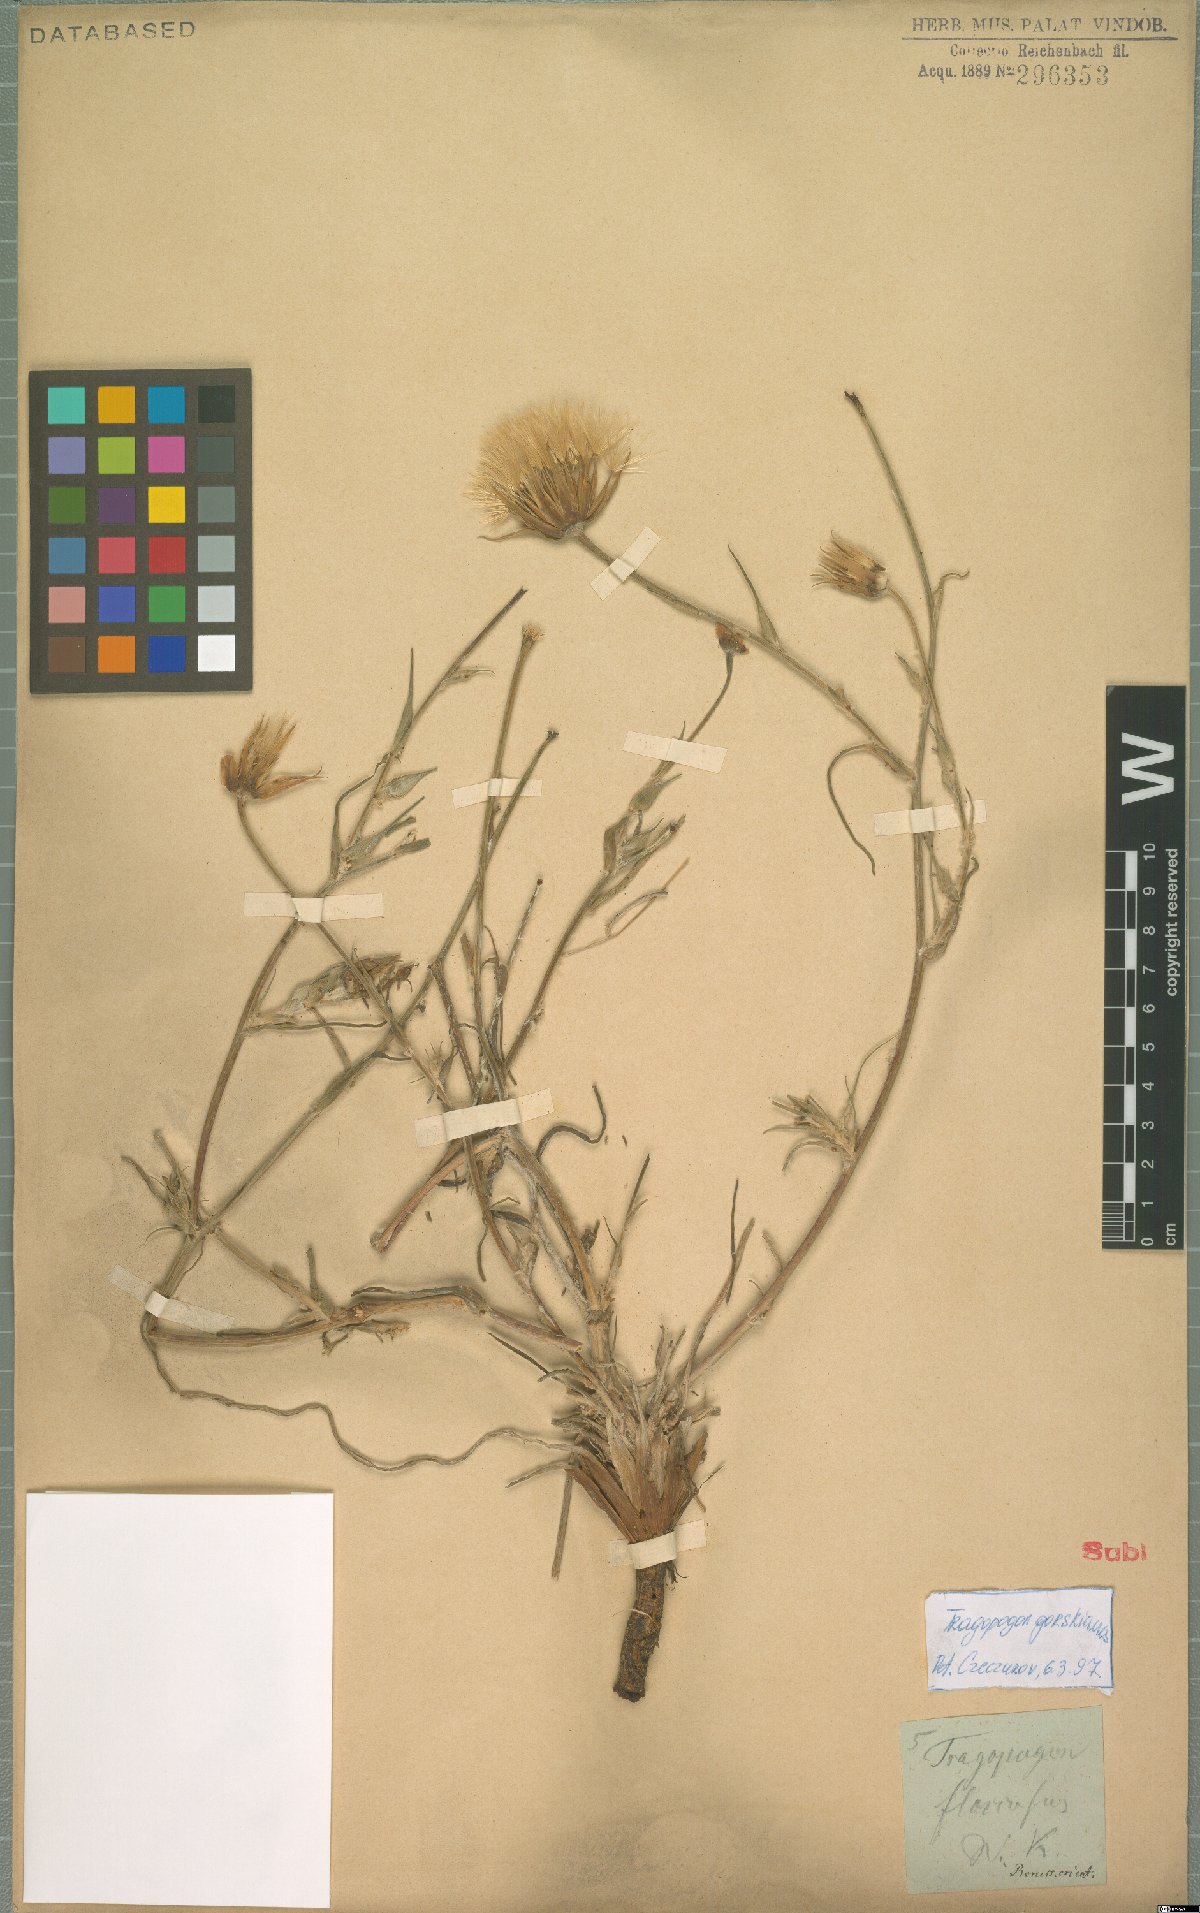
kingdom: Plantae
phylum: Tracheophyta
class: Magnoliopsida
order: Asterales
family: Asteraceae
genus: Tragopogon
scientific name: Tragopogon gorskianus
